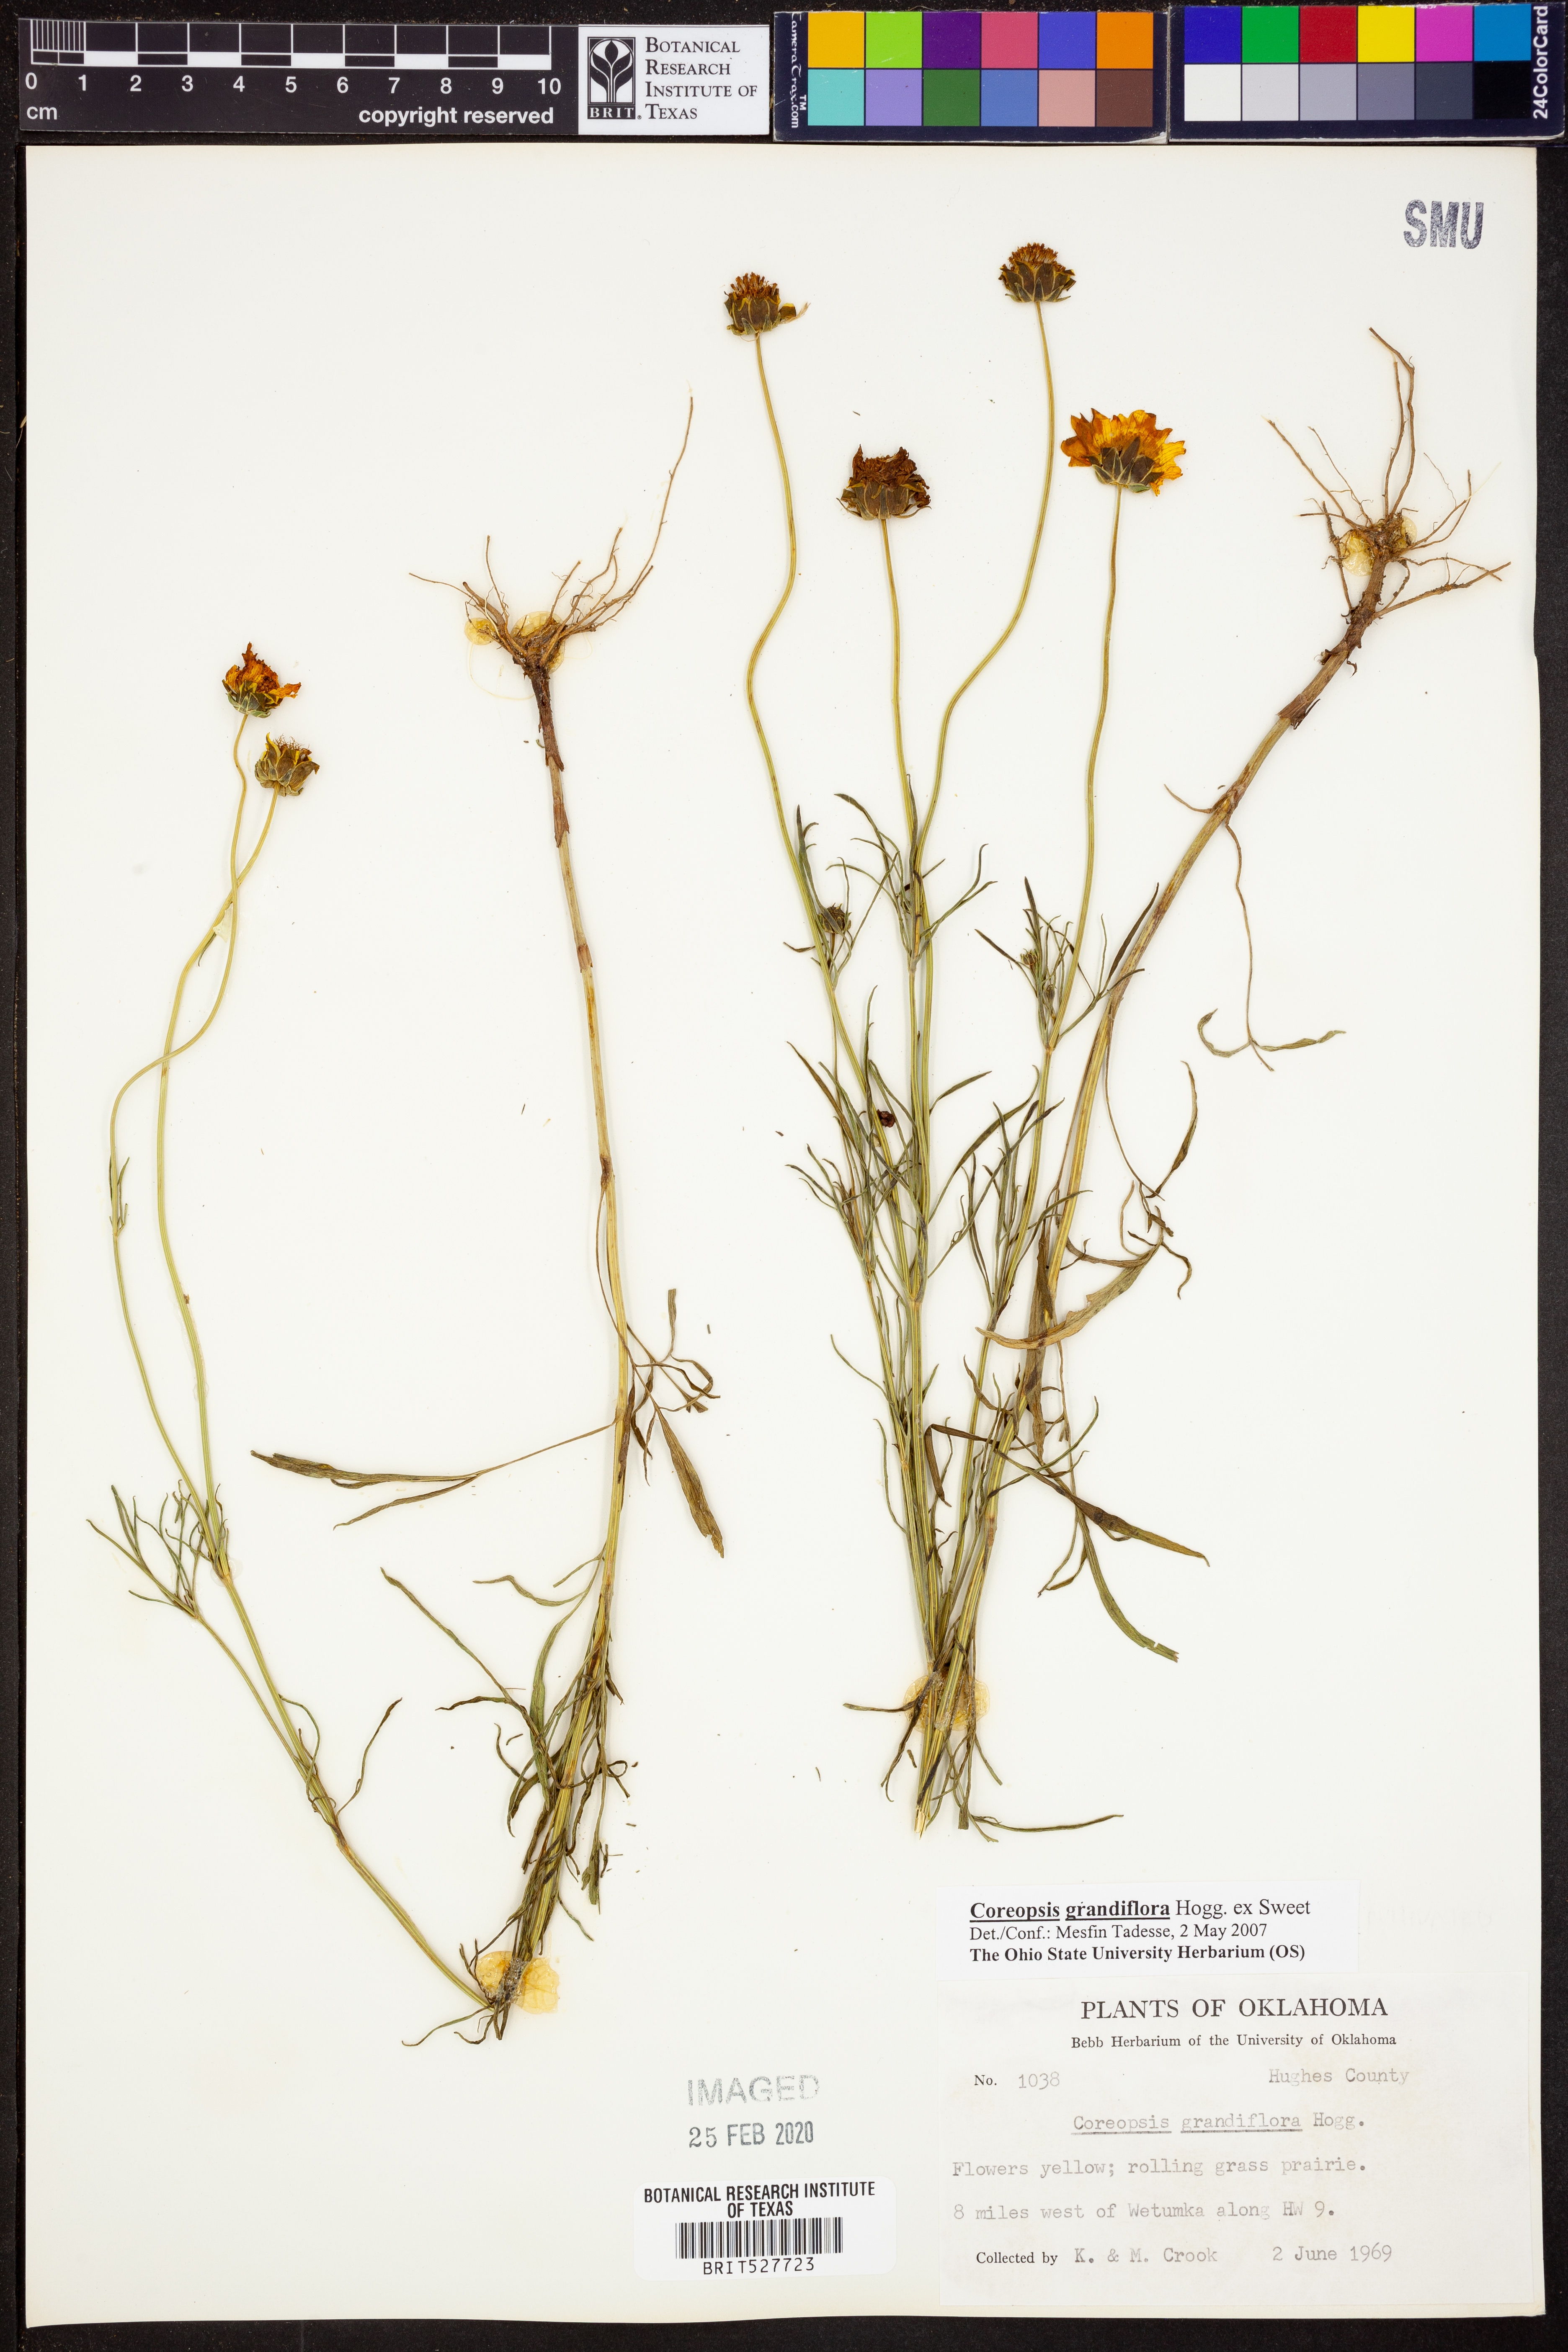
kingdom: Plantae
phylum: Tracheophyta
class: Magnoliopsida
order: Asterales
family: Asteraceae
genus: Coreopsis
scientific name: Coreopsis grandiflora
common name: Large-flowered tickseed
